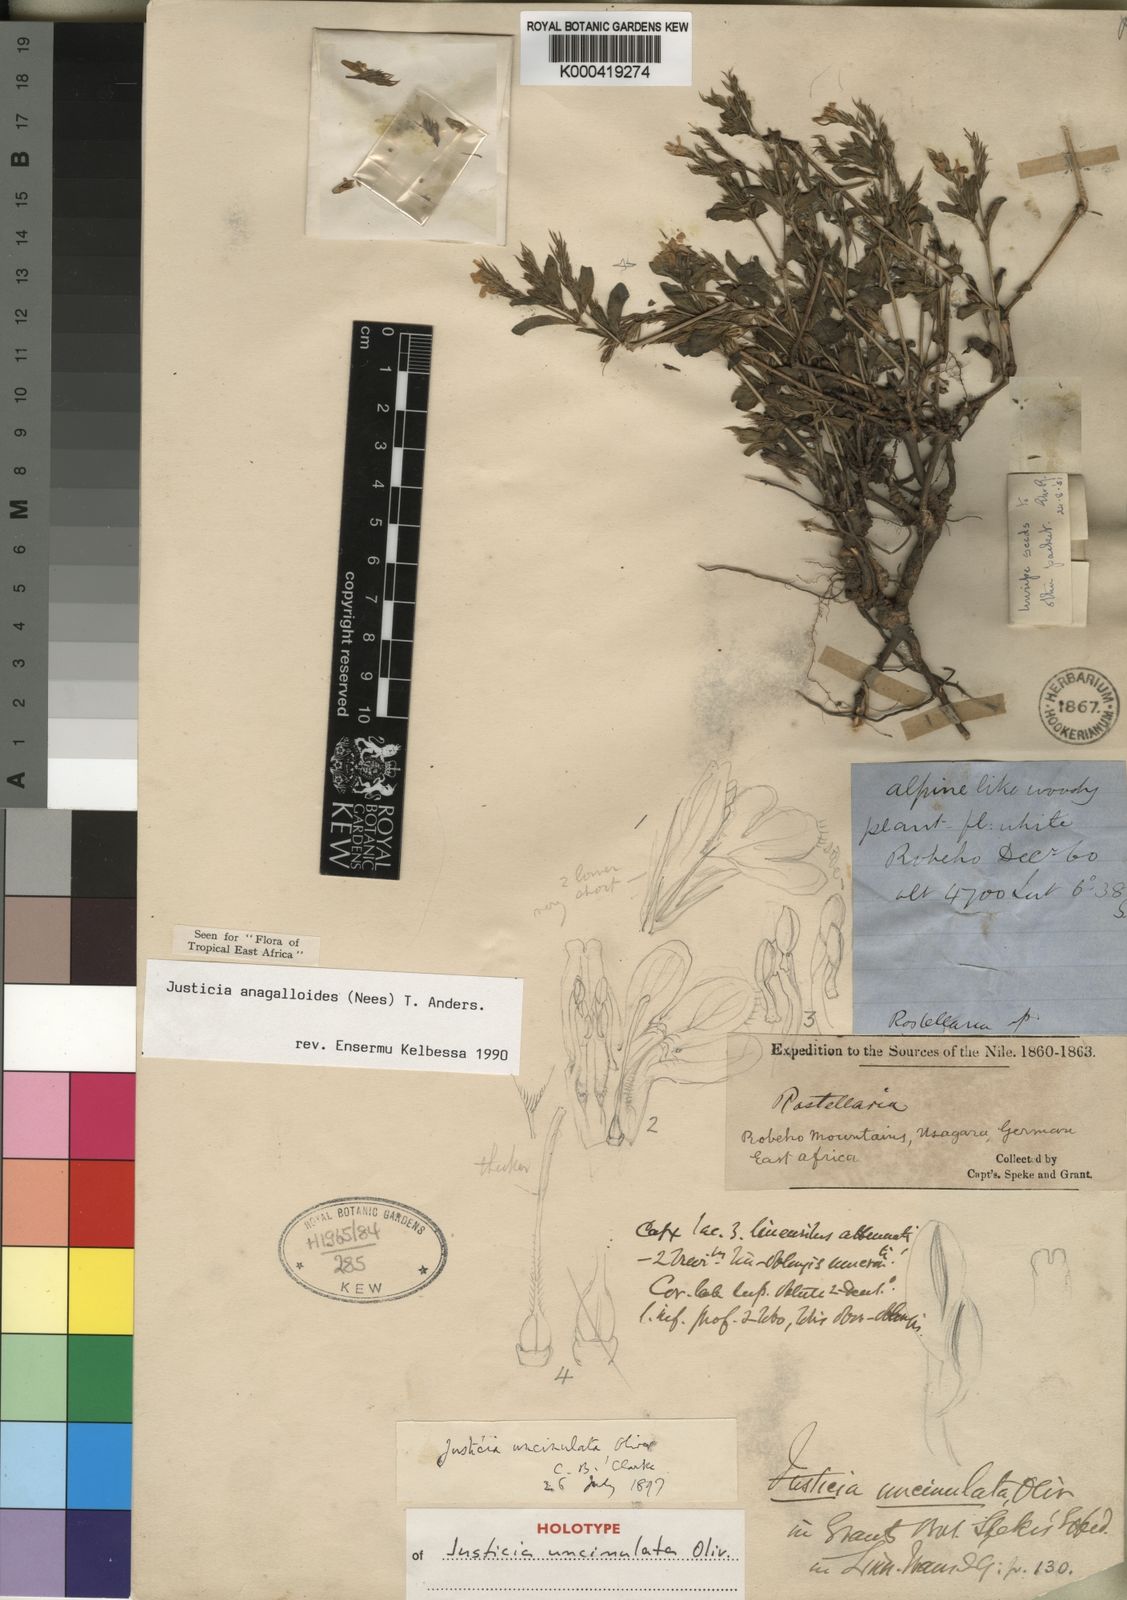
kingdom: Plantae
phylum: Tracheophyta
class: Magnoliopsida
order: Lamiales
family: Acanthaceae
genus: Justicia
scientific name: Justicia
